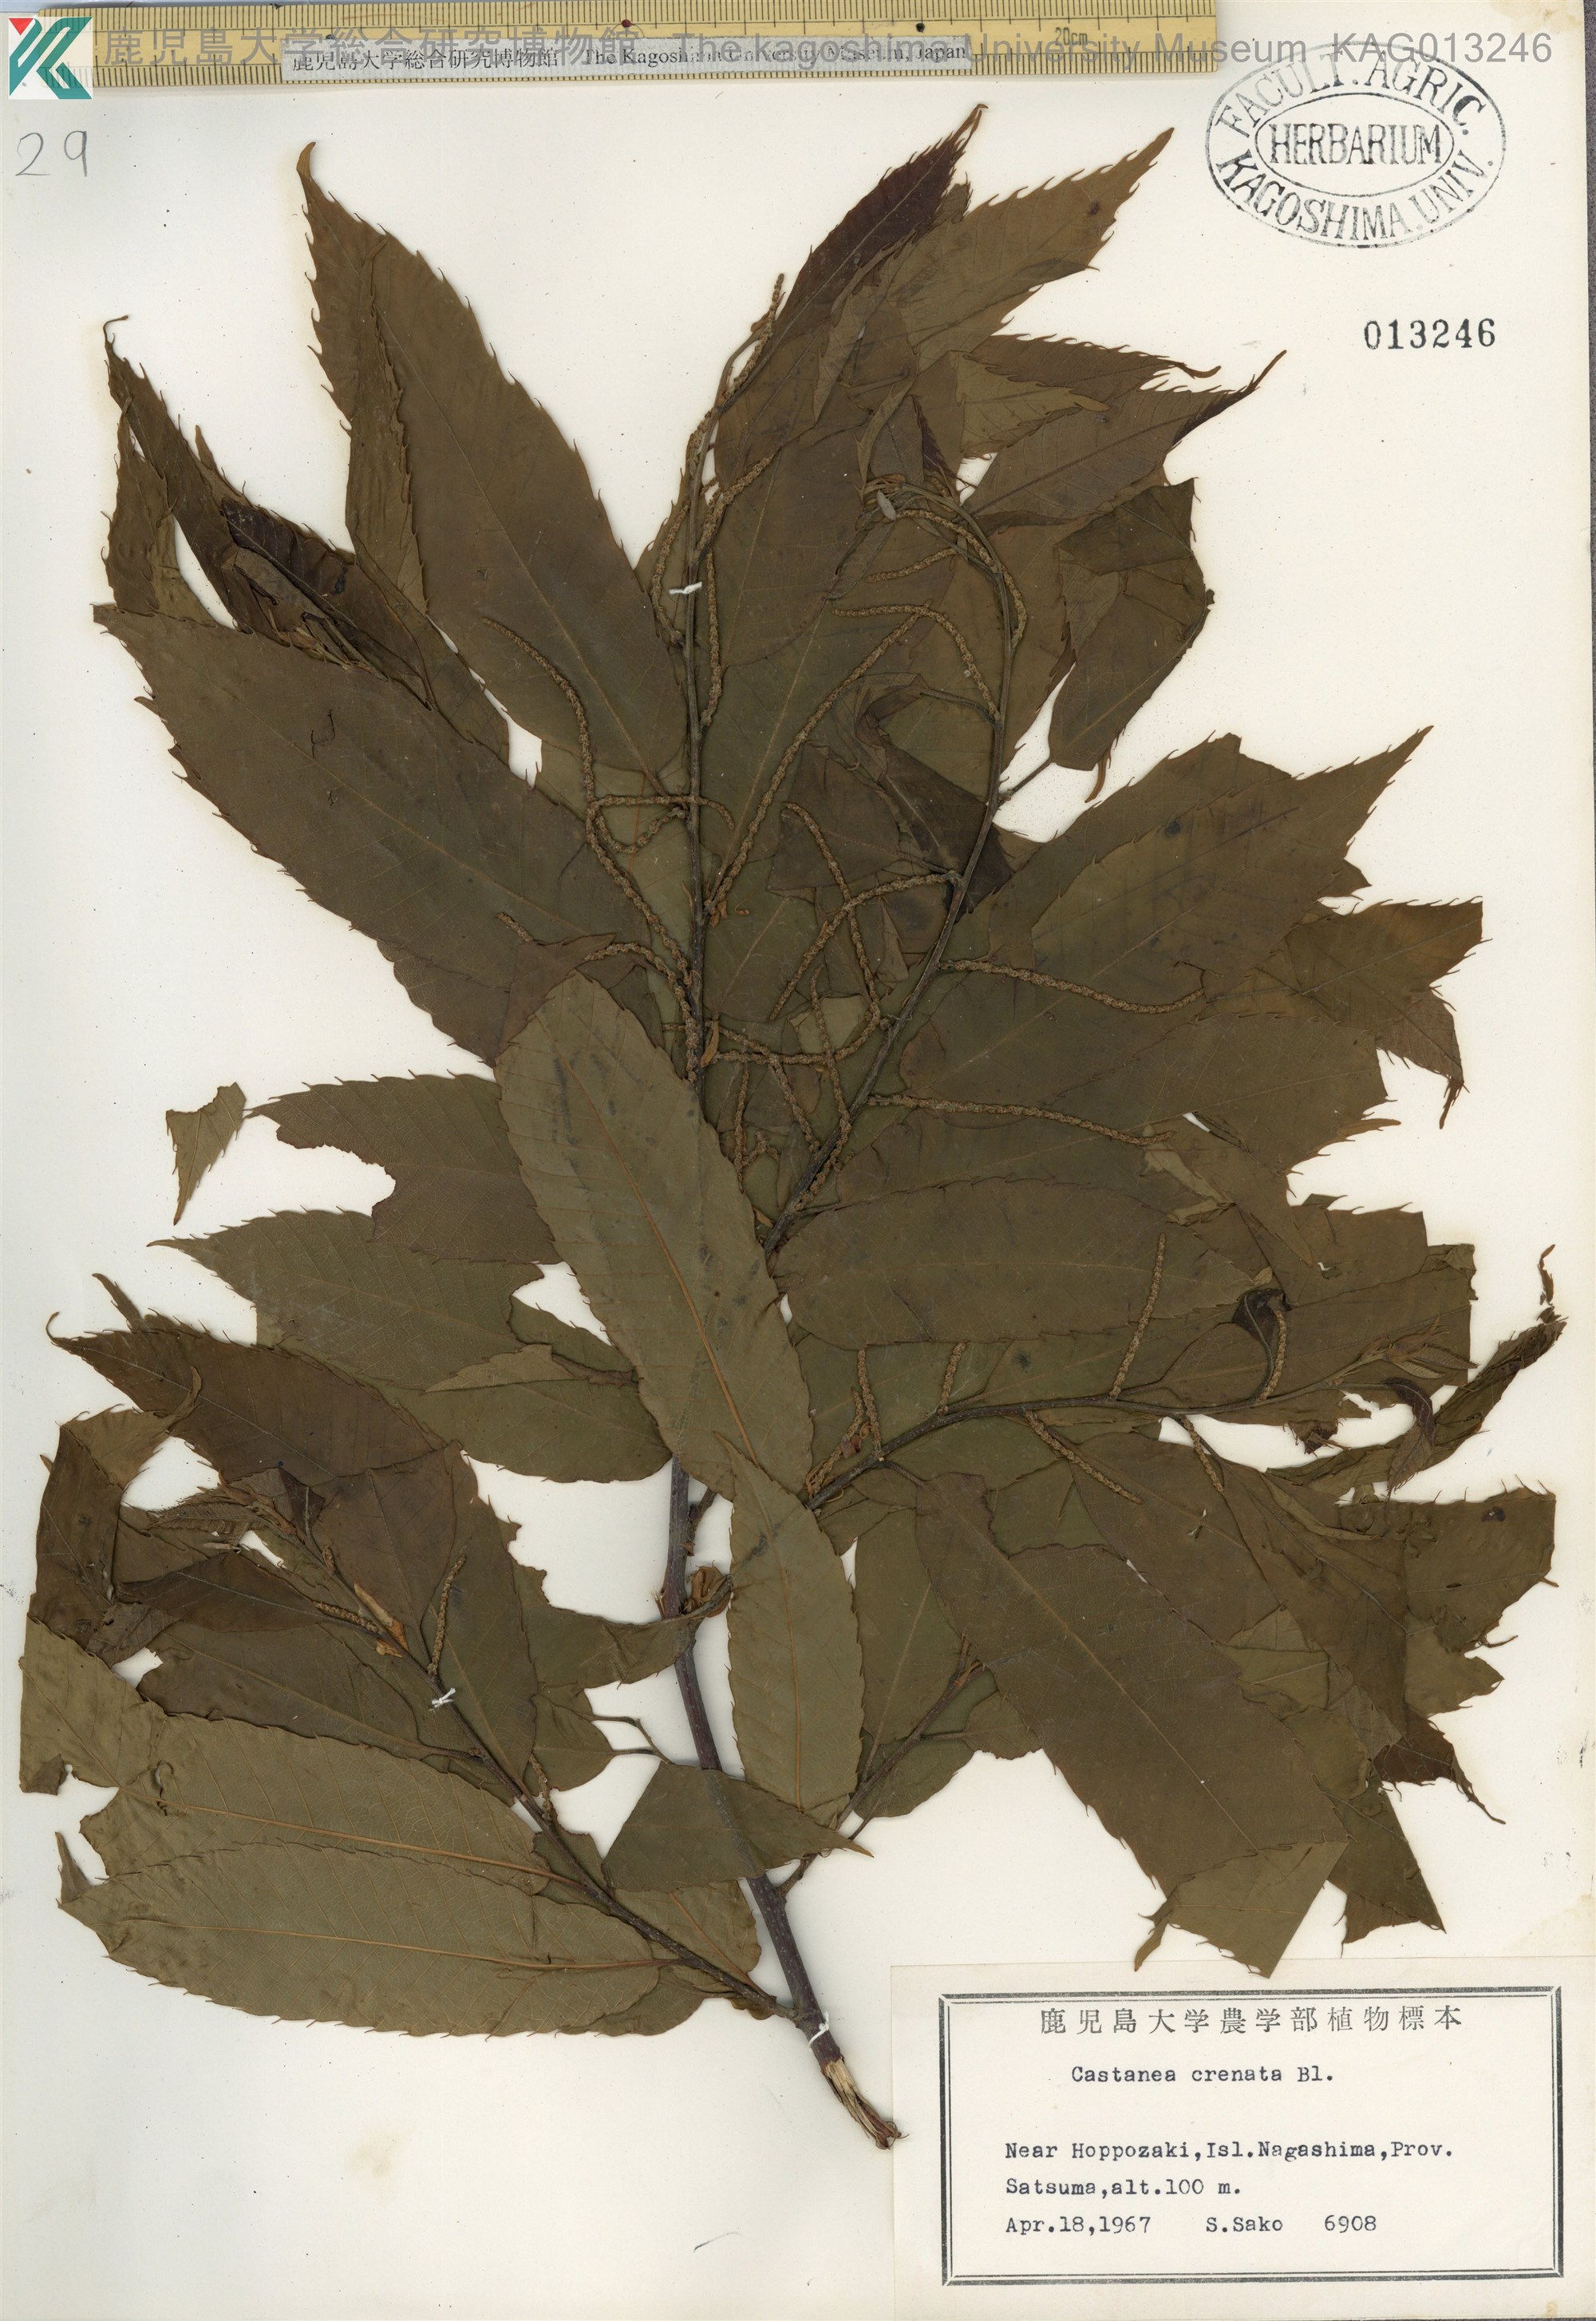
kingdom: Plantae
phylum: Tracheophyta
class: Magnoliopsida
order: Fagales
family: Fagaceae
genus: Castanea
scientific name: Castanea crenata
